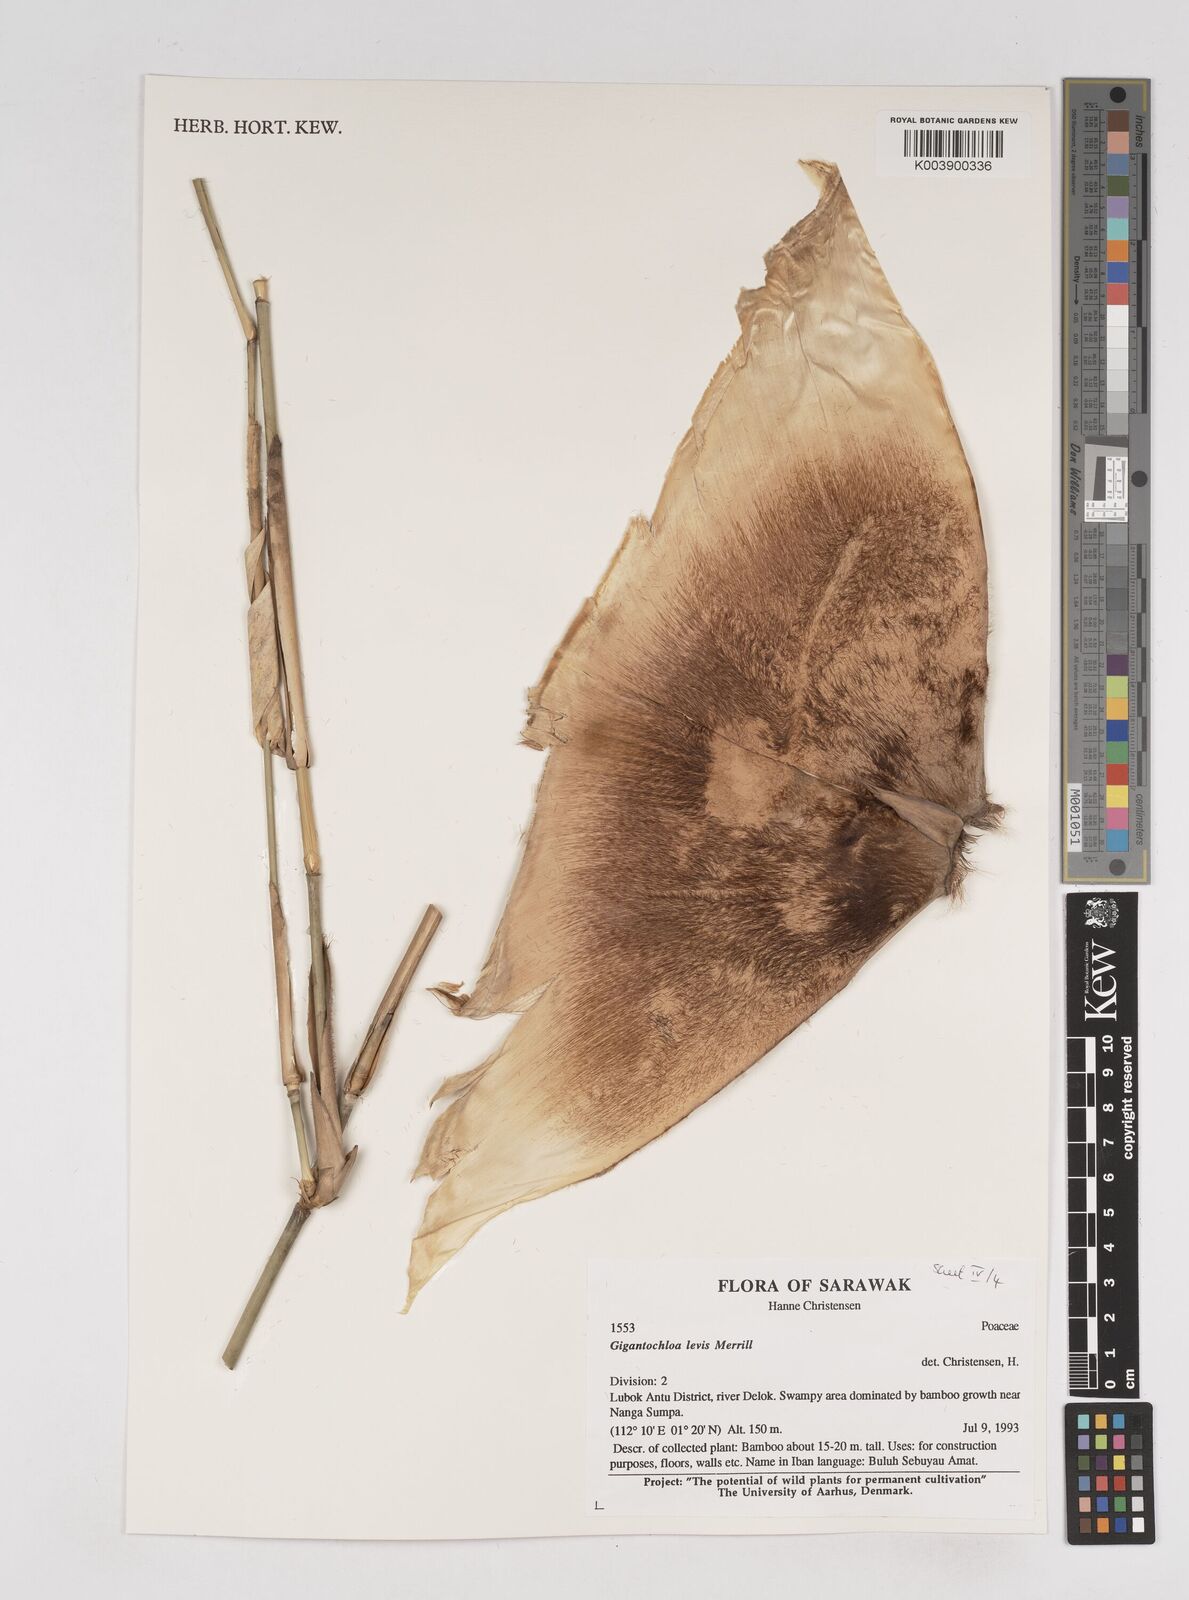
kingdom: Plantae
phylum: Tracheophyta
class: Liliopsida
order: Poales
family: Poaceae
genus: Gigantochloa
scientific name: Gigantochloa levis
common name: Smooth-shoot gigantochloa
